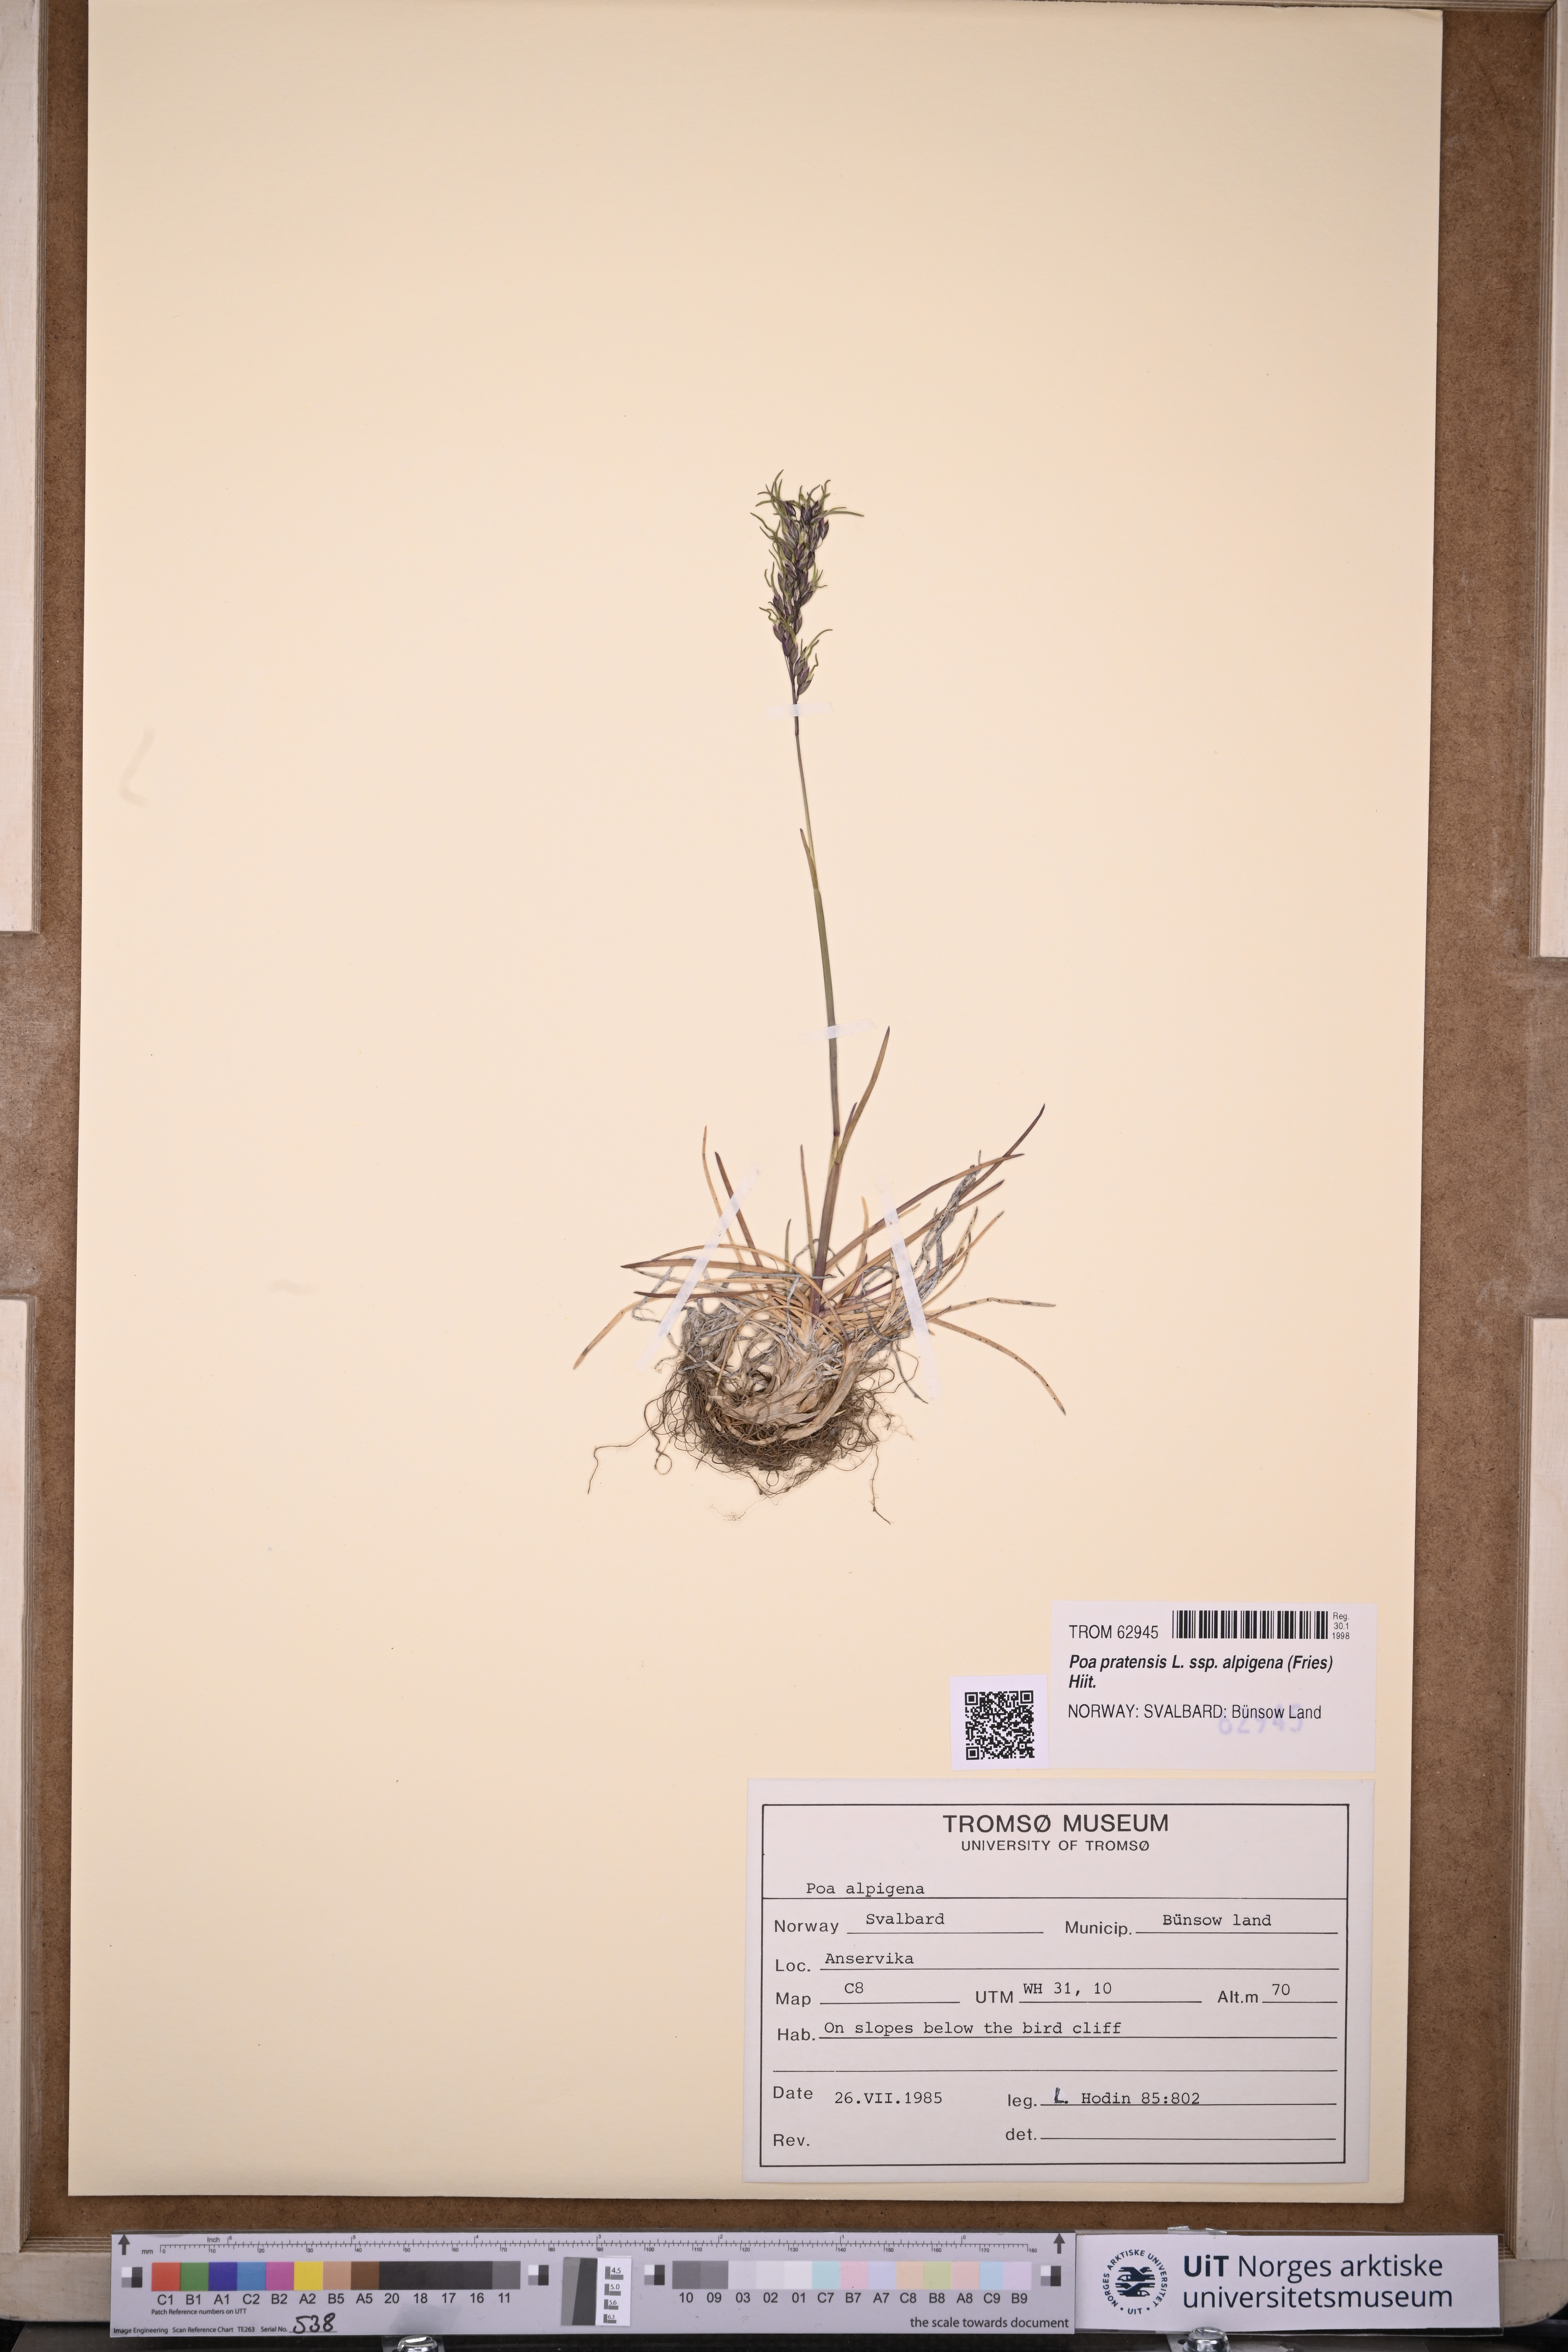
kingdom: Plantae
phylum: Tracheophyta
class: Liliopsida
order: Poales
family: Poaceae
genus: Poa
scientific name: Poa alpigena
